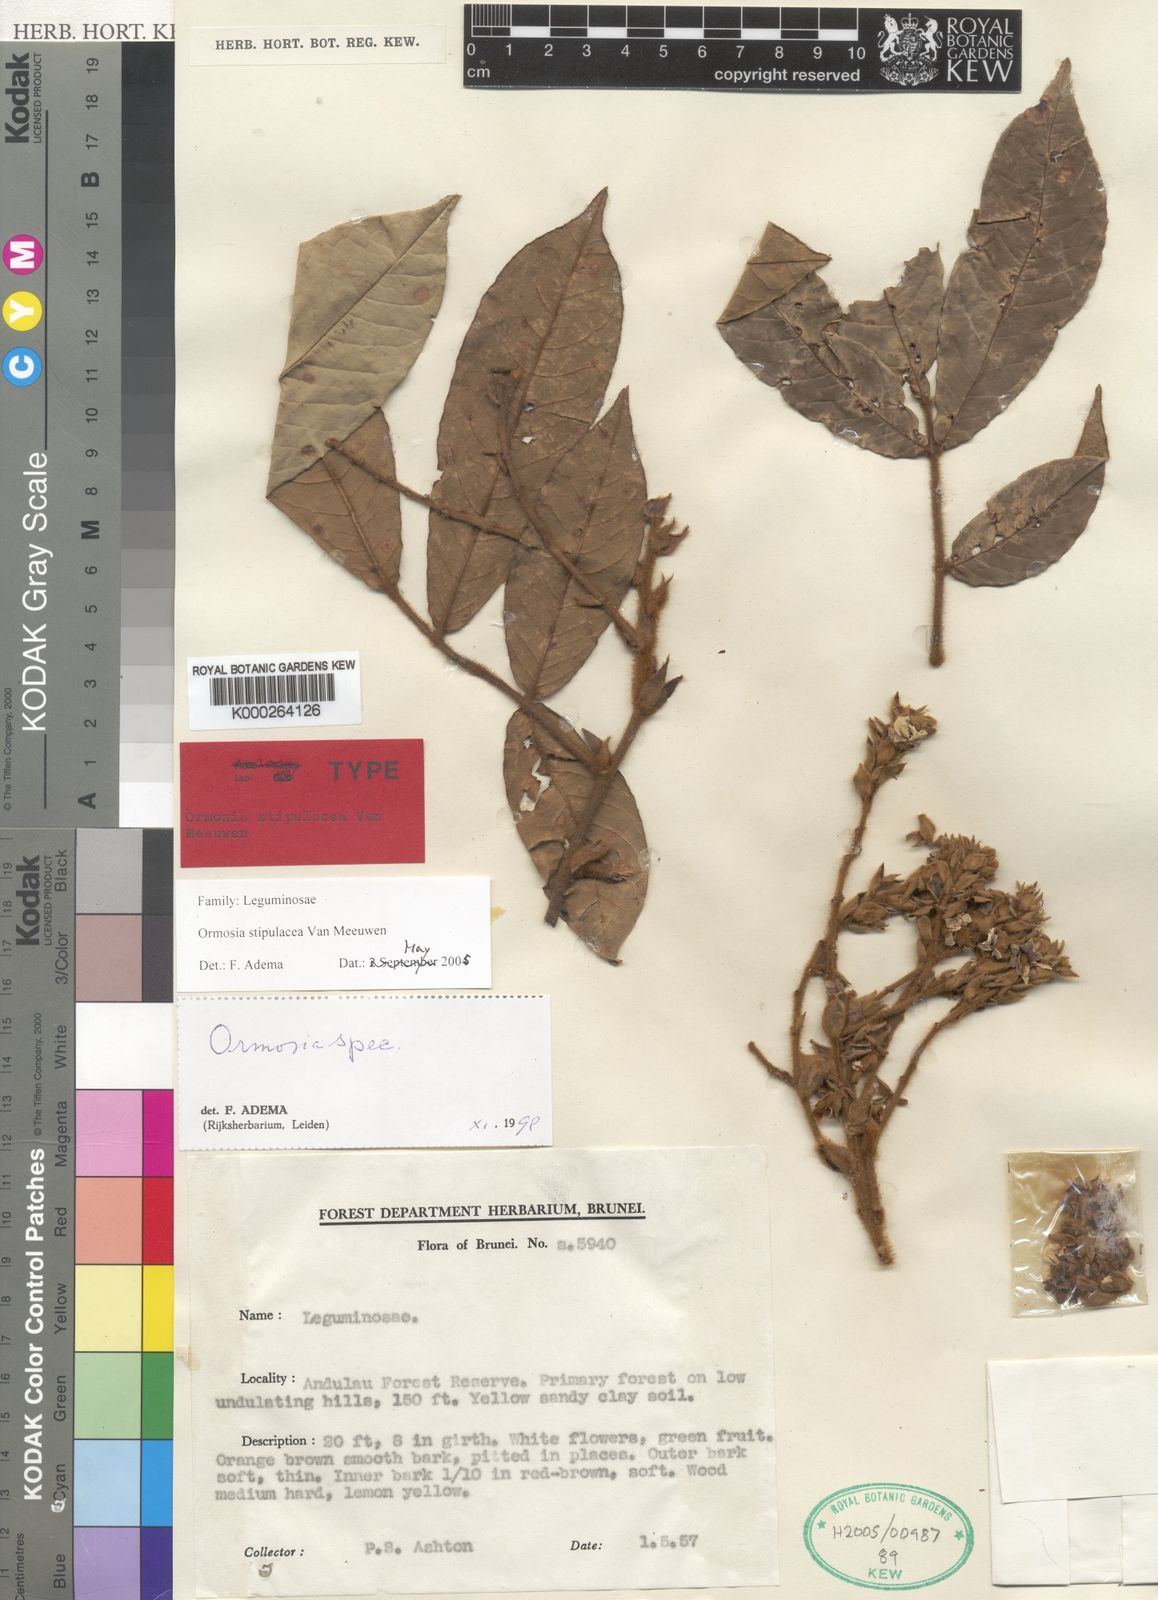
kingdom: Plantae
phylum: Tracheophyta
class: Magnoliopsida
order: Fabales
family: Fabaceae
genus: Ormosia
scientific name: Ormosia stipulacea
